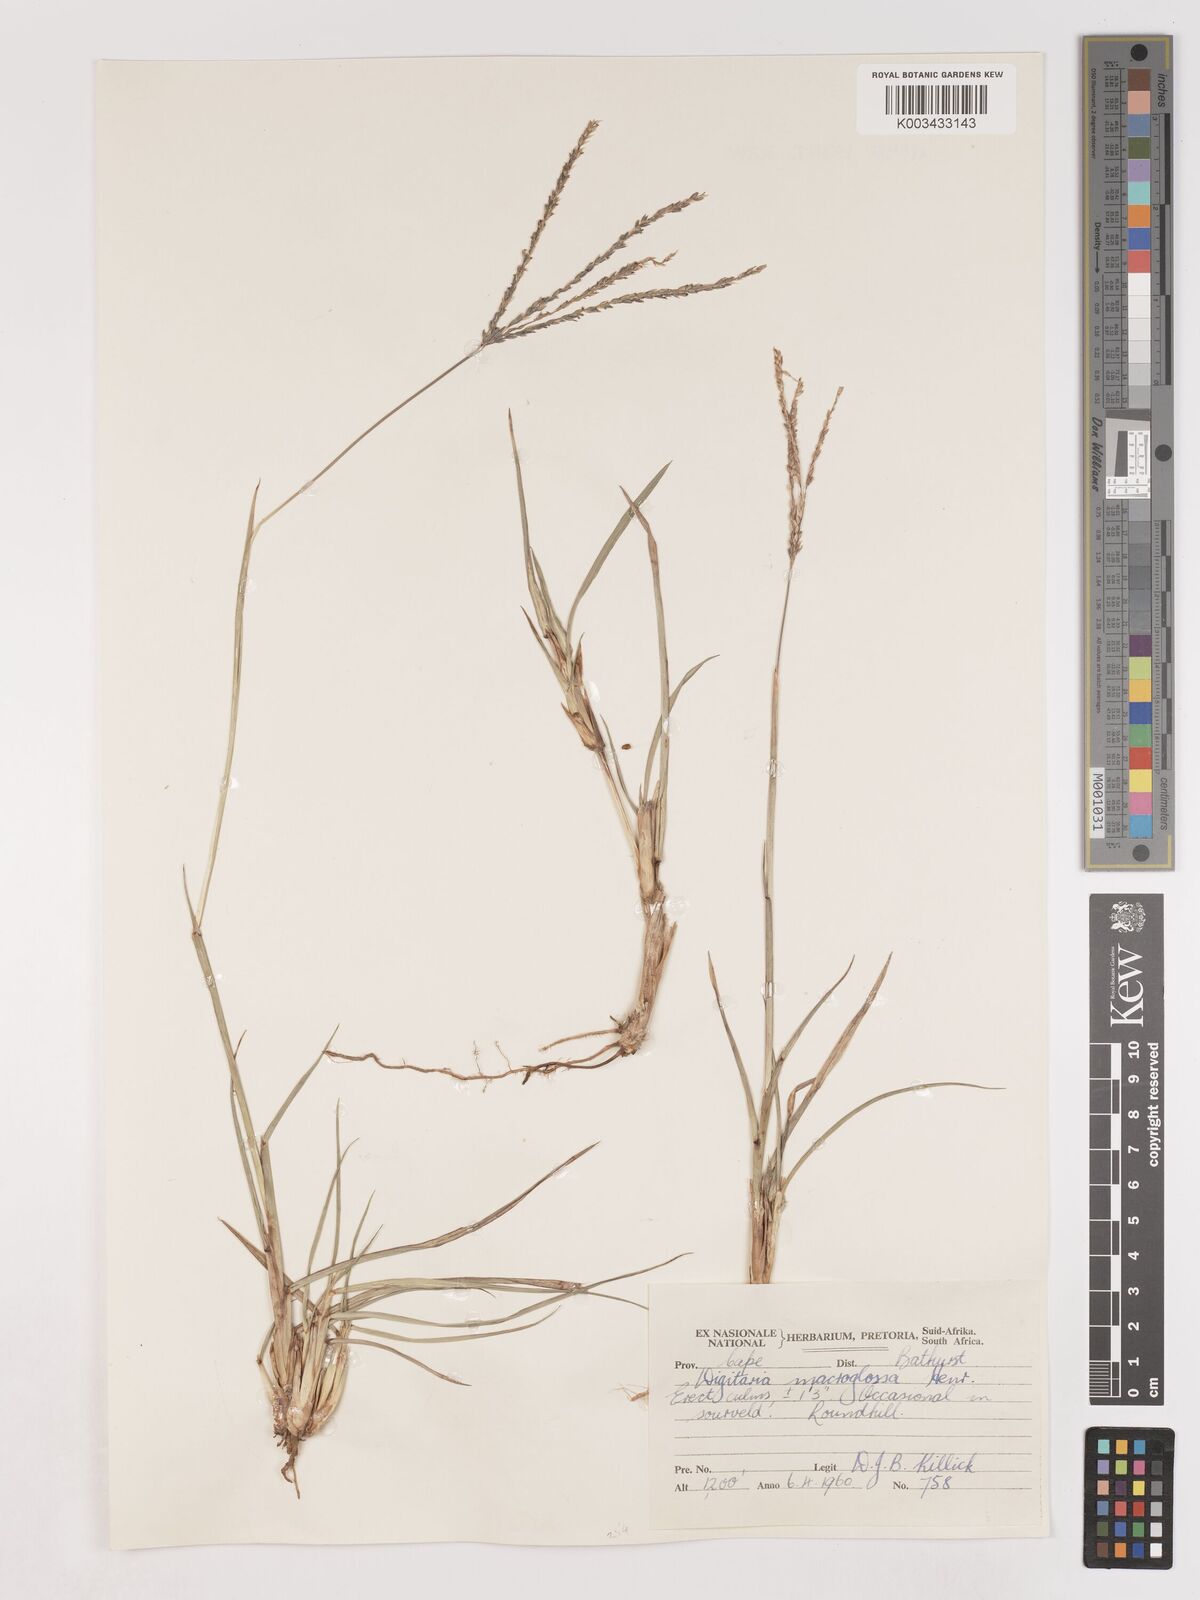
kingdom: Plantae
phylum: Tracheophyta
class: Liliopsida
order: Poales
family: Poaceae
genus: Digitaria
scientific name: Digitaria natalensis
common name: Coast finger grass
